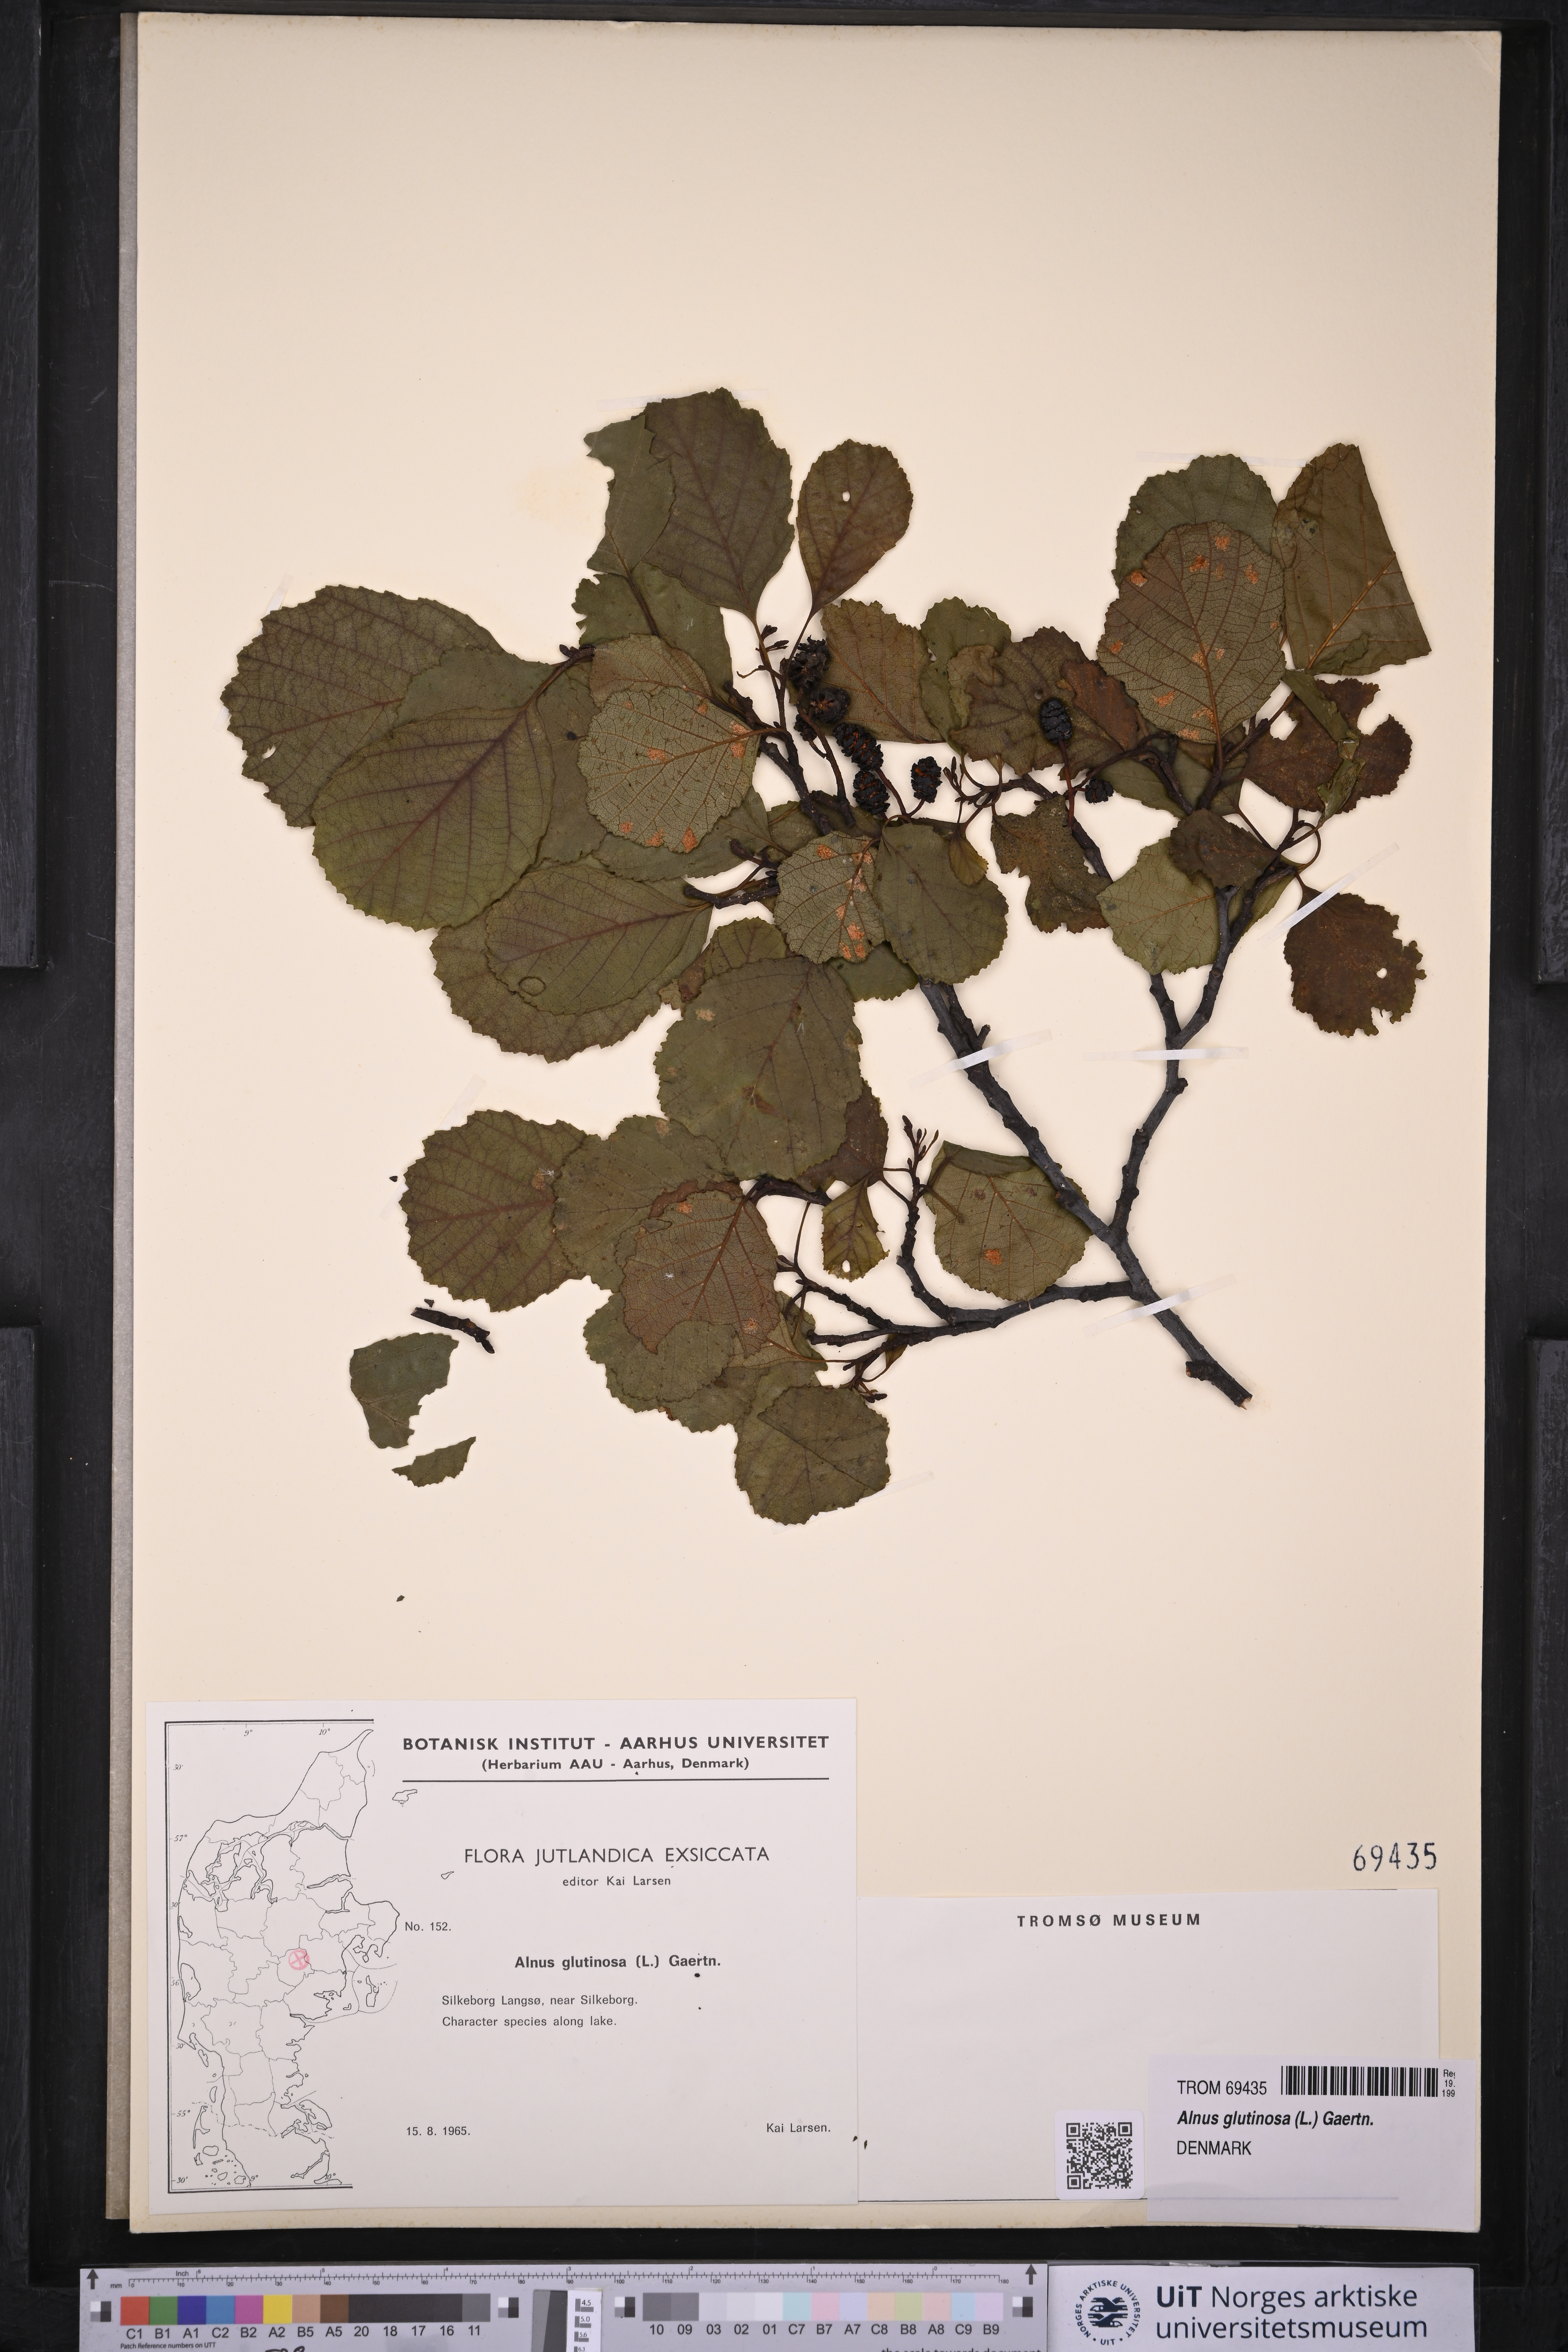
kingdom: Plantae
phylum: Tracheophyta
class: Magnoliopsida
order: Fagales
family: Betulaceae
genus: Alnus
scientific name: Alnus glutinosa
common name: Black alder
